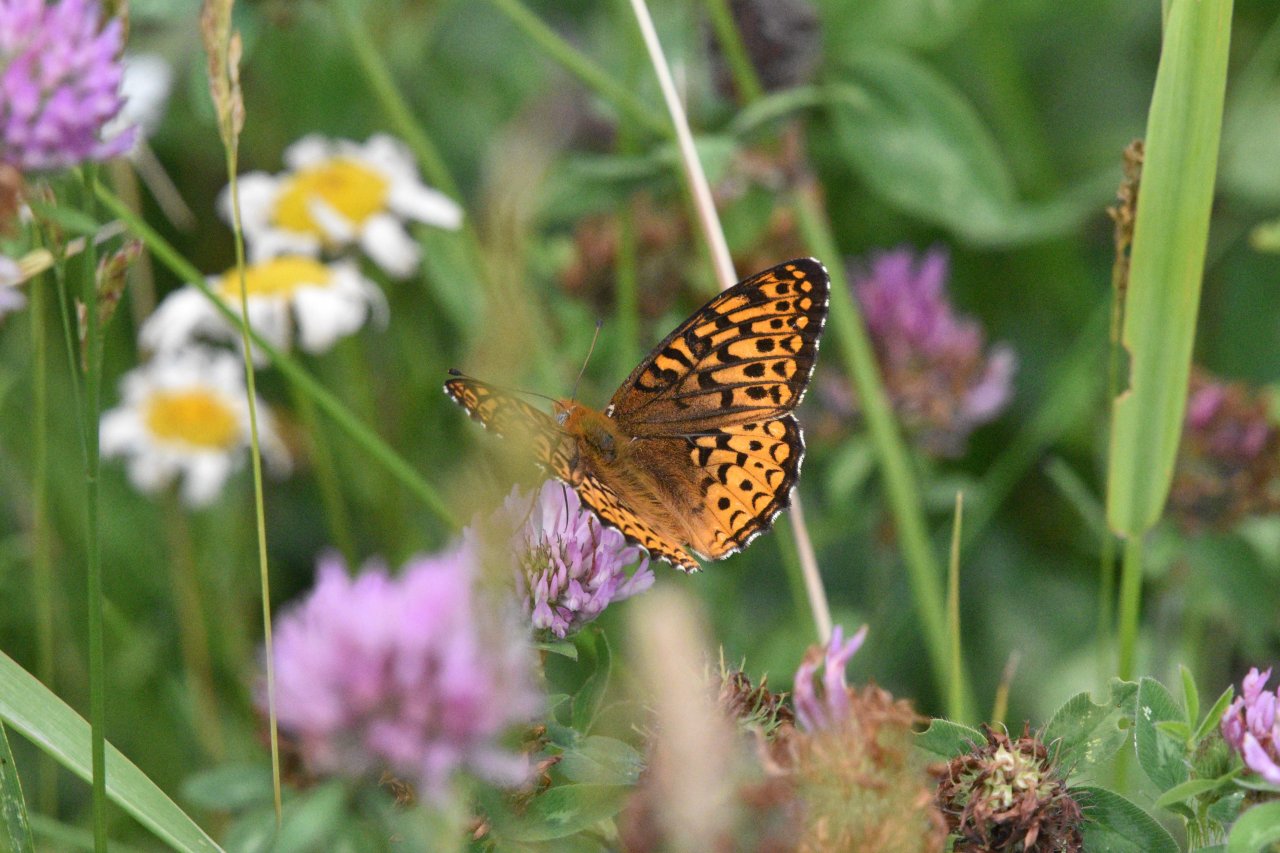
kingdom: Animalia
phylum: Arthropoda
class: Insecta
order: Lepidoptera
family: Nymphalidae
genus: Speyeria
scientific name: Speyeria atlantis
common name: Atlantis Fritillary
